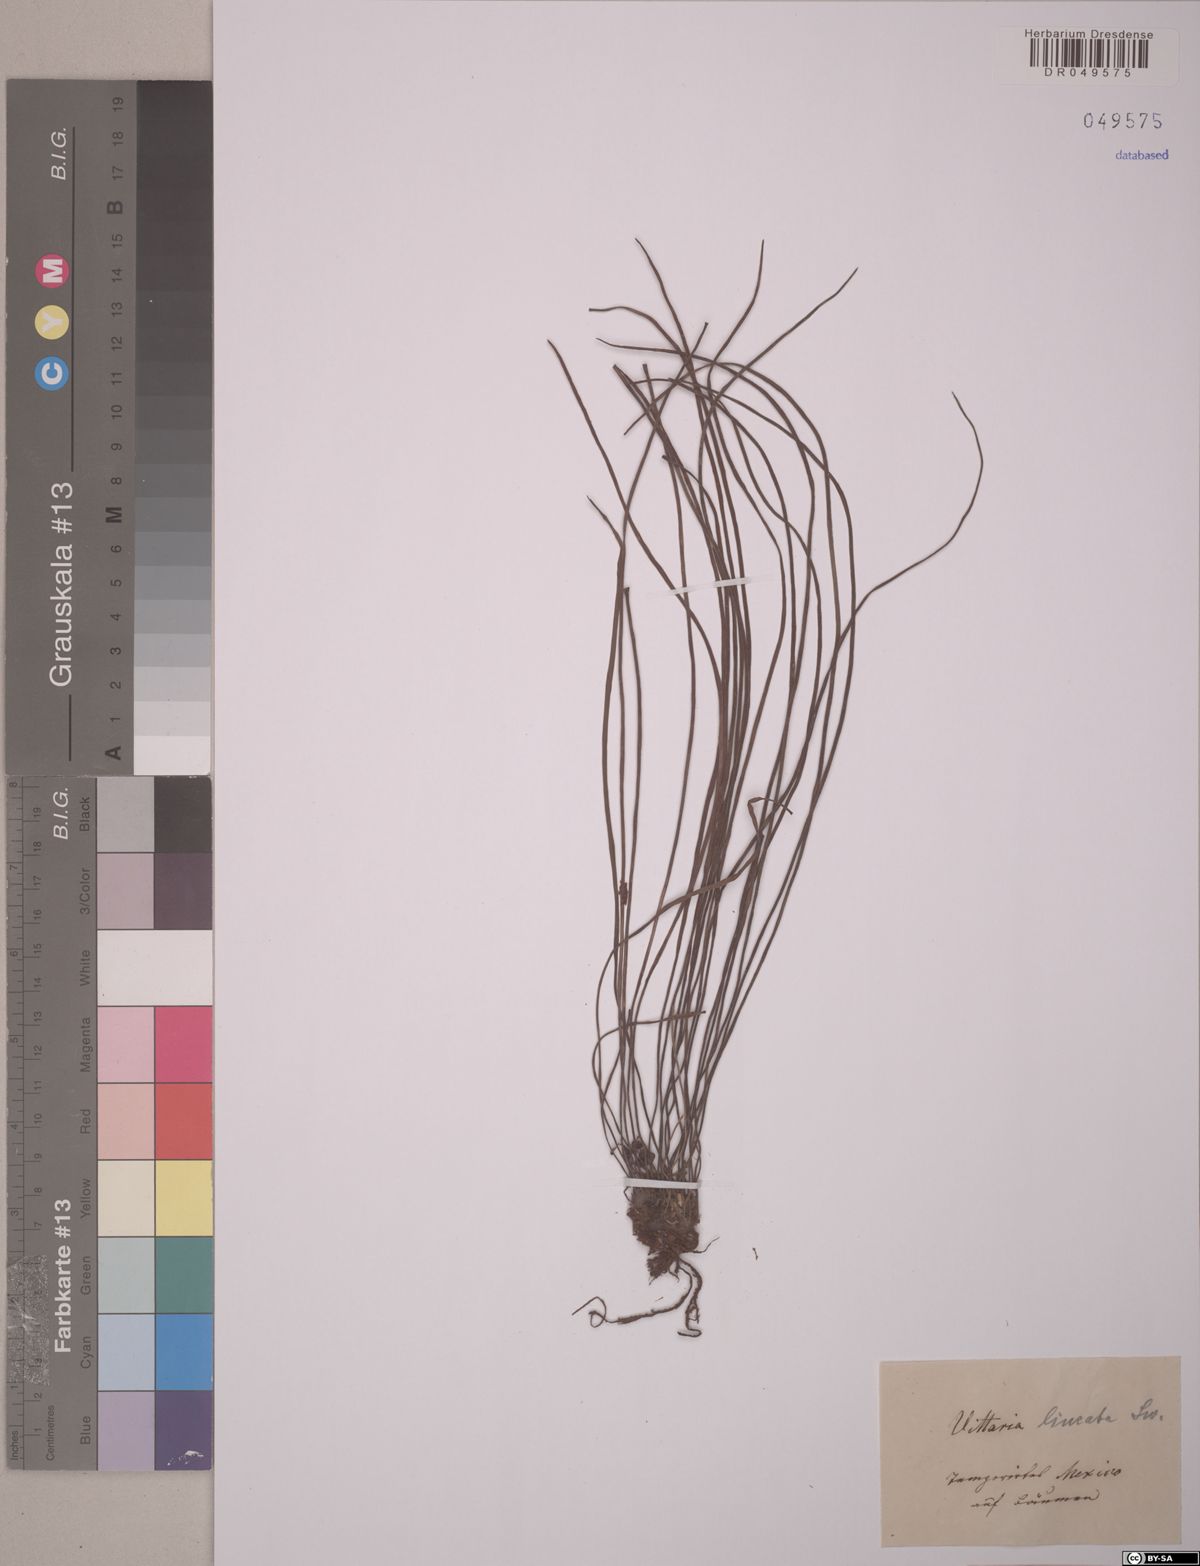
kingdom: Plantae
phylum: Tracheophyta
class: Polypodiopsida
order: Polypodiales
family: Pteridaceae
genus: Vittaria
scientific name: Vittaria lineata
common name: Shoestring fern
